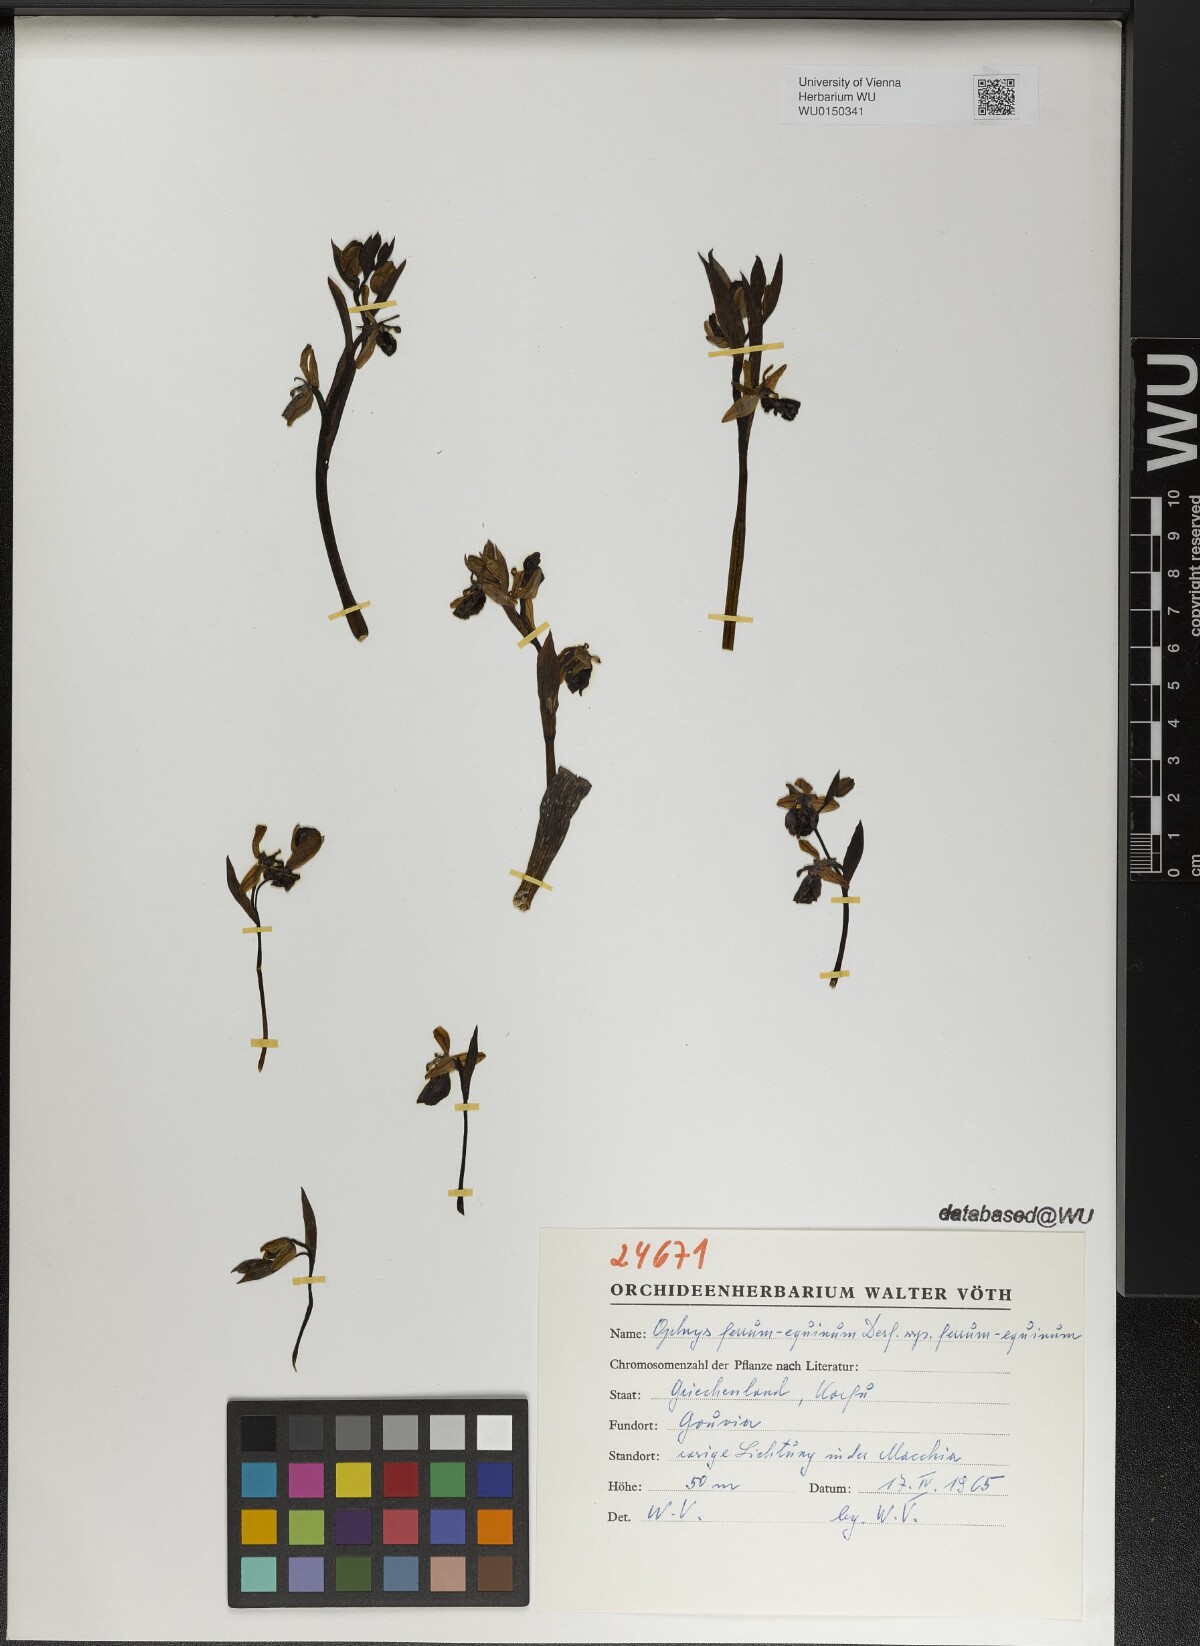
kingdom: Plantae
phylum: Tracheophyta
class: Liliopsida
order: Asparagales
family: Orchidaceae
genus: Ophrys
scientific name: Ophrys ferrum-equinum
